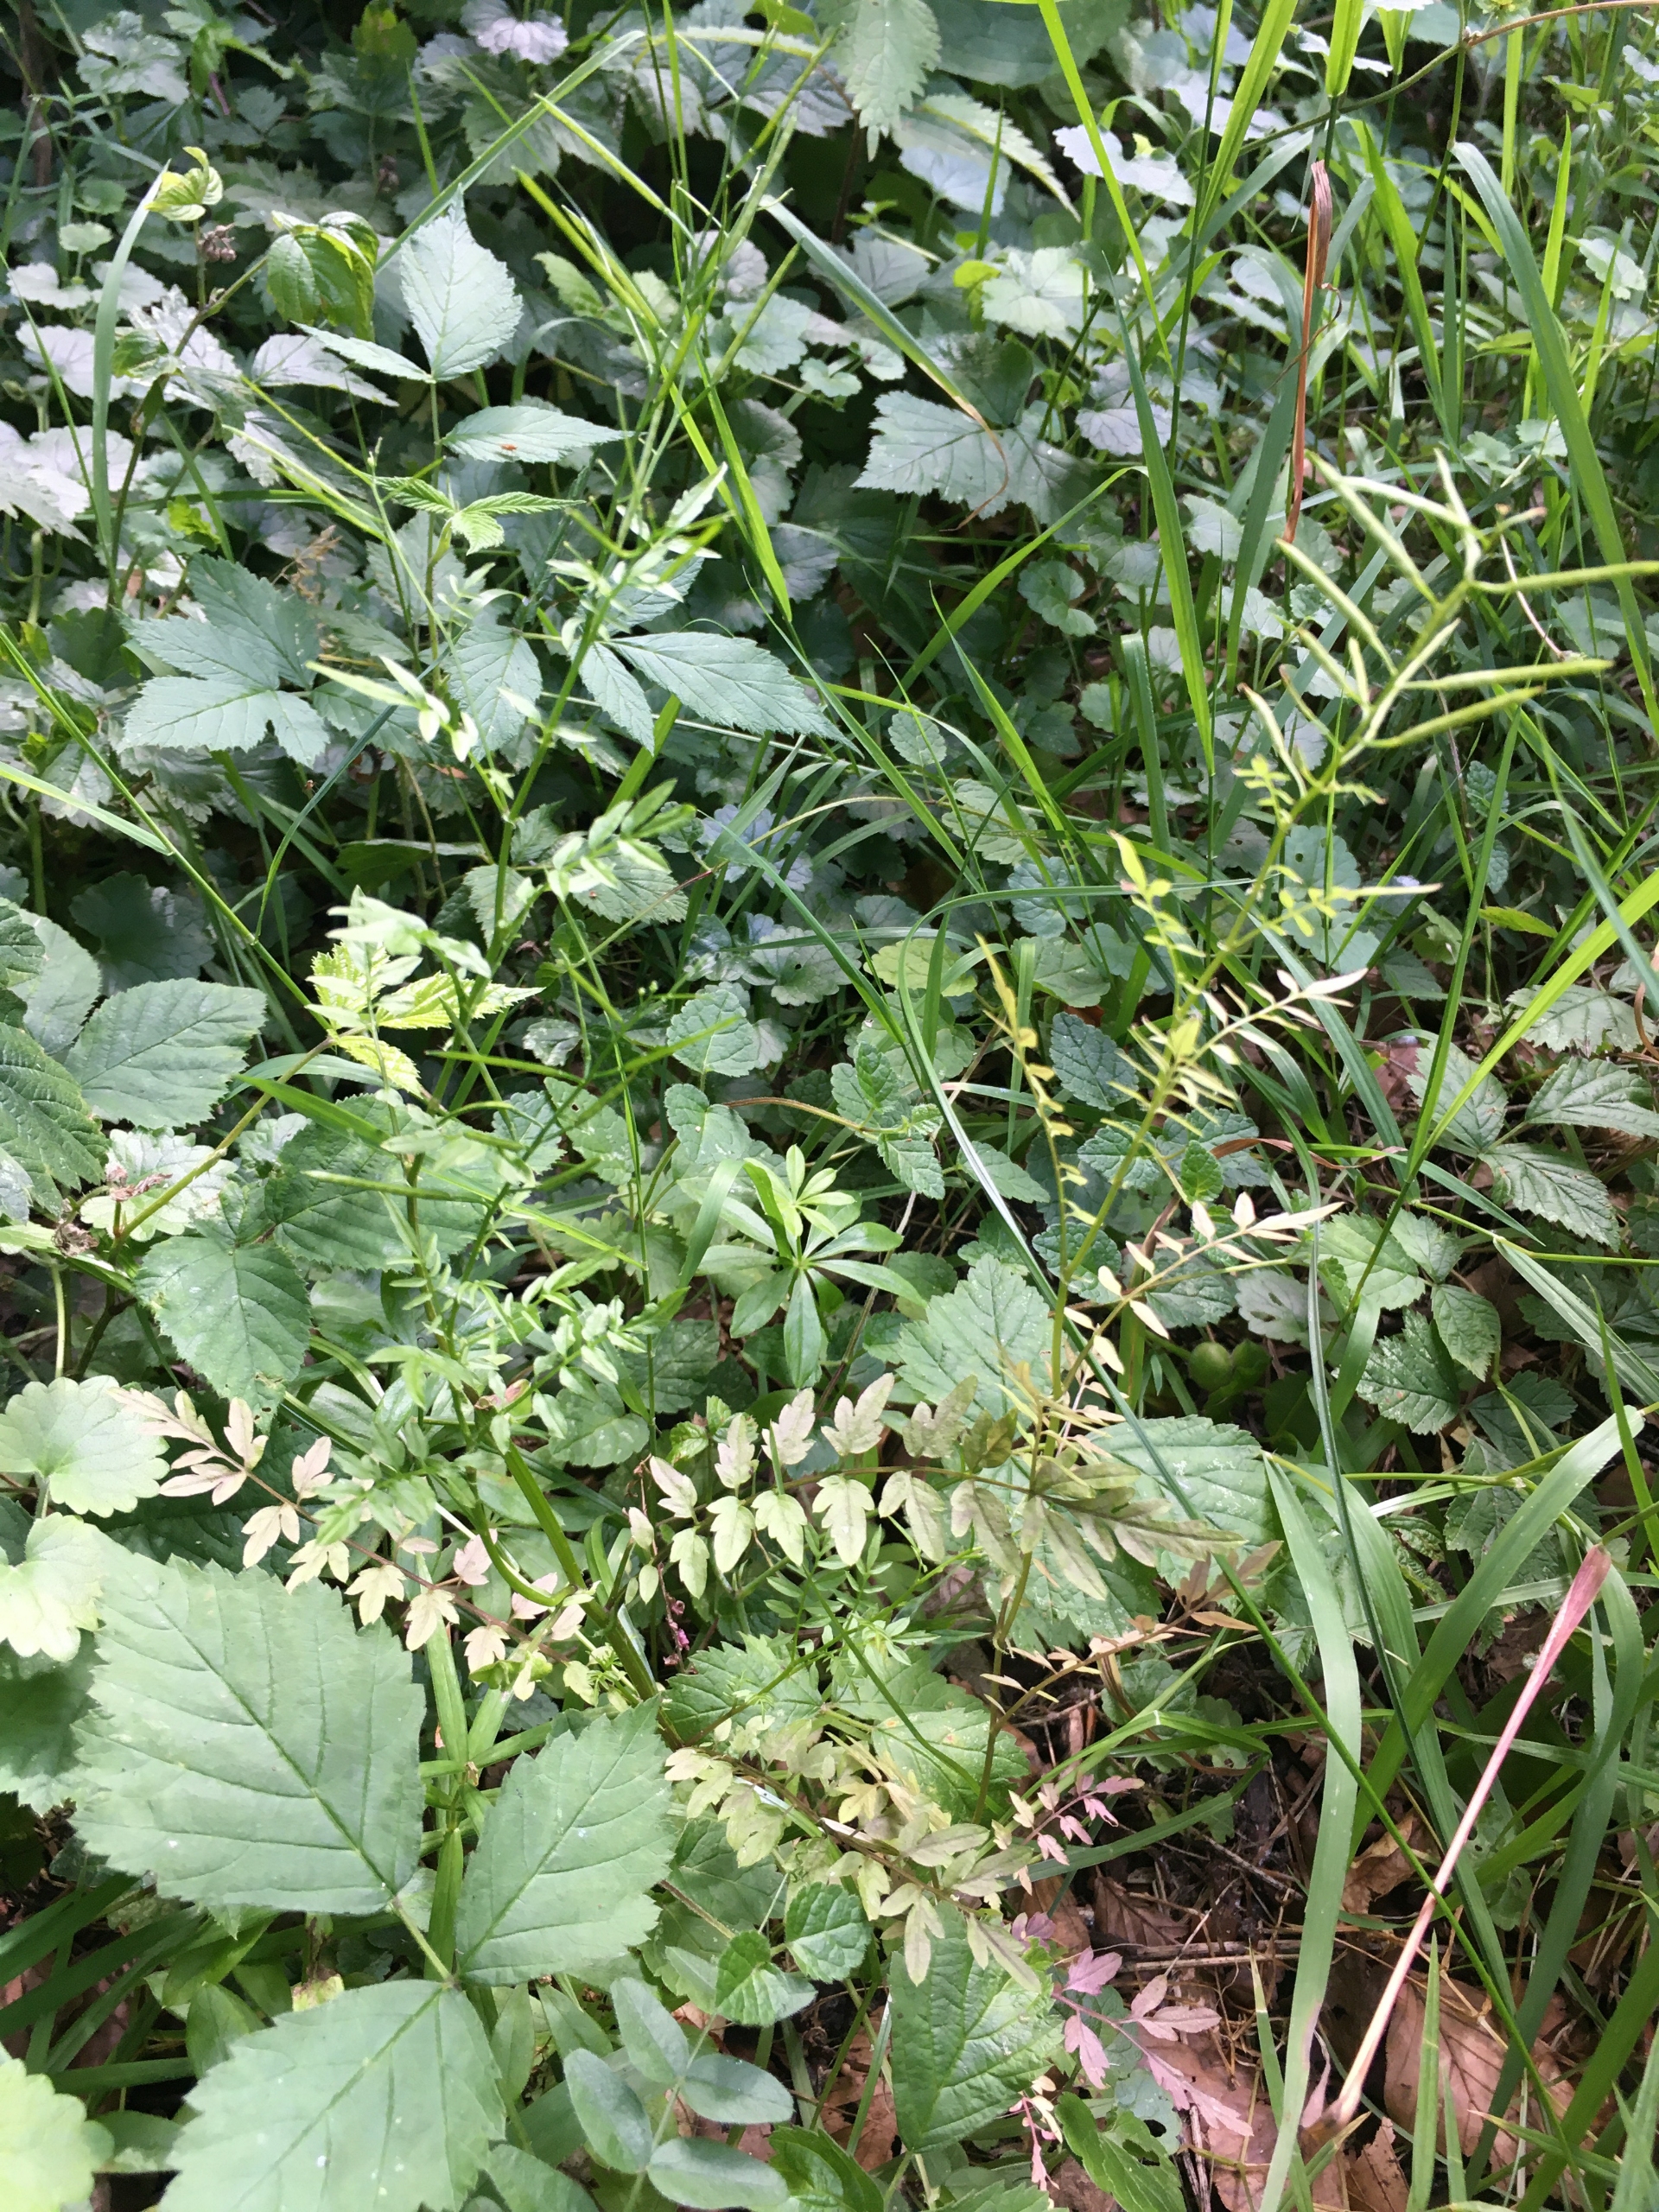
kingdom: Plantae
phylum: Tracheophyta
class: Magnoliopsida
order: Brassicales
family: Brassicaceae
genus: Cardamine
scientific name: Cardamine impatiens
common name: Kronløs springklap
